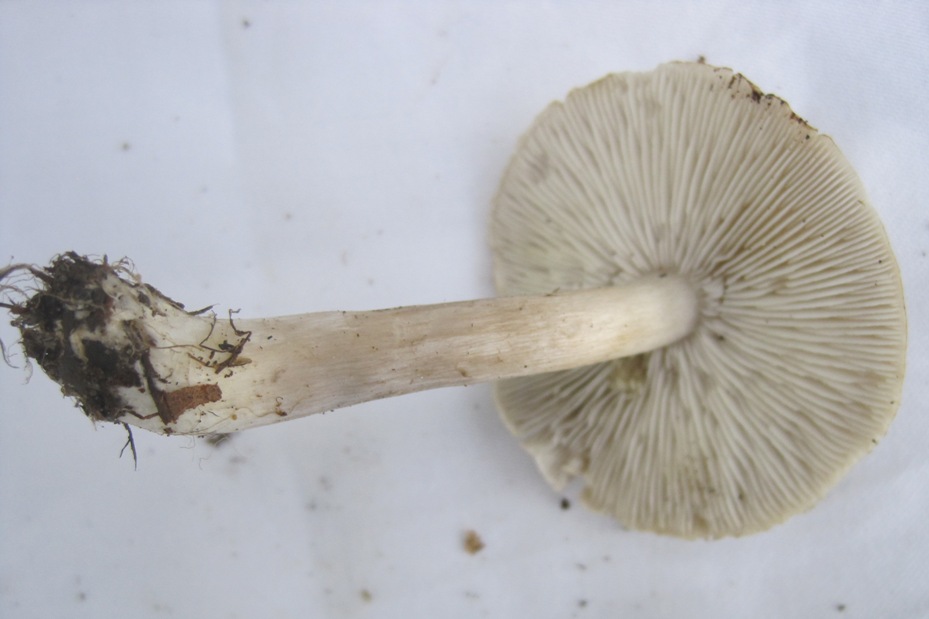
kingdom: Fungi
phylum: Basidiomycota
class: Agaricomycetes
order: Agaricales
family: Tricholomataceae
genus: Tricholoma
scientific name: Tricholoma scalpturatum
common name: gulplettet ridderhat
